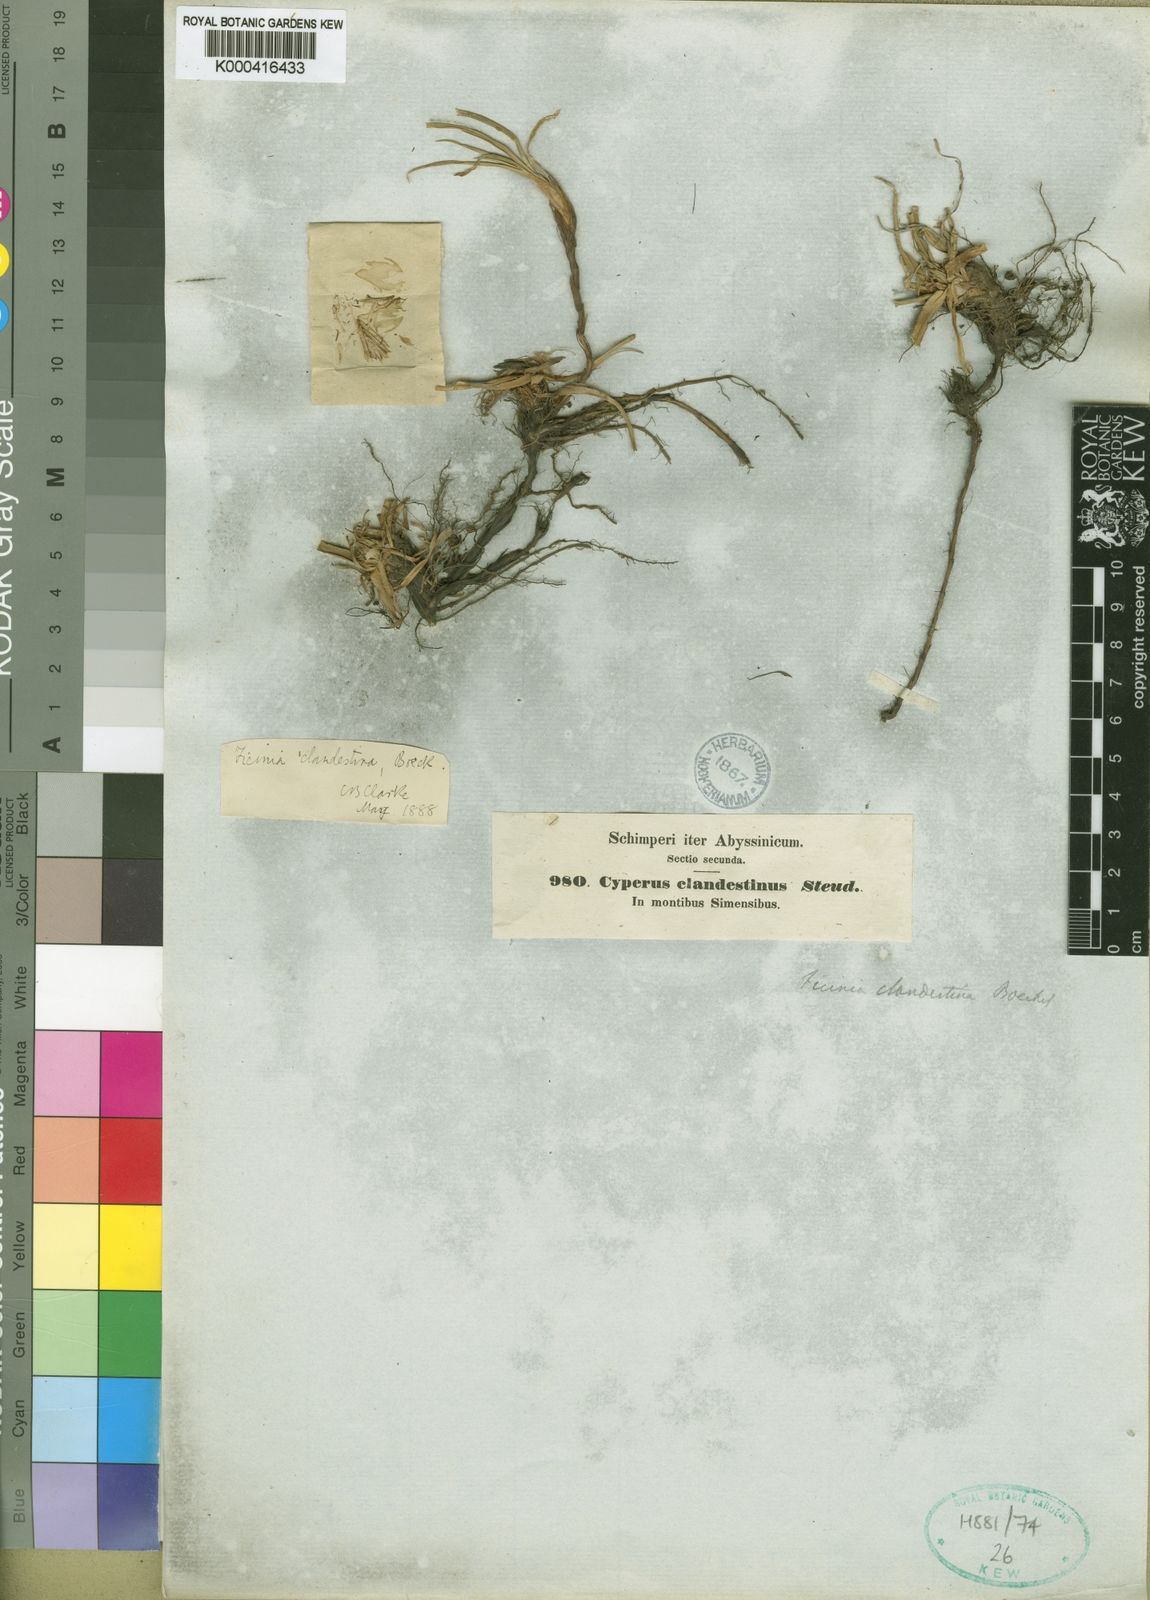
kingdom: Plantae
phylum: Tracheophyta
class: Liliopsida
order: Poales
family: Cyperaceae
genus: Cyperus
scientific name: Cyperus clandestinus
